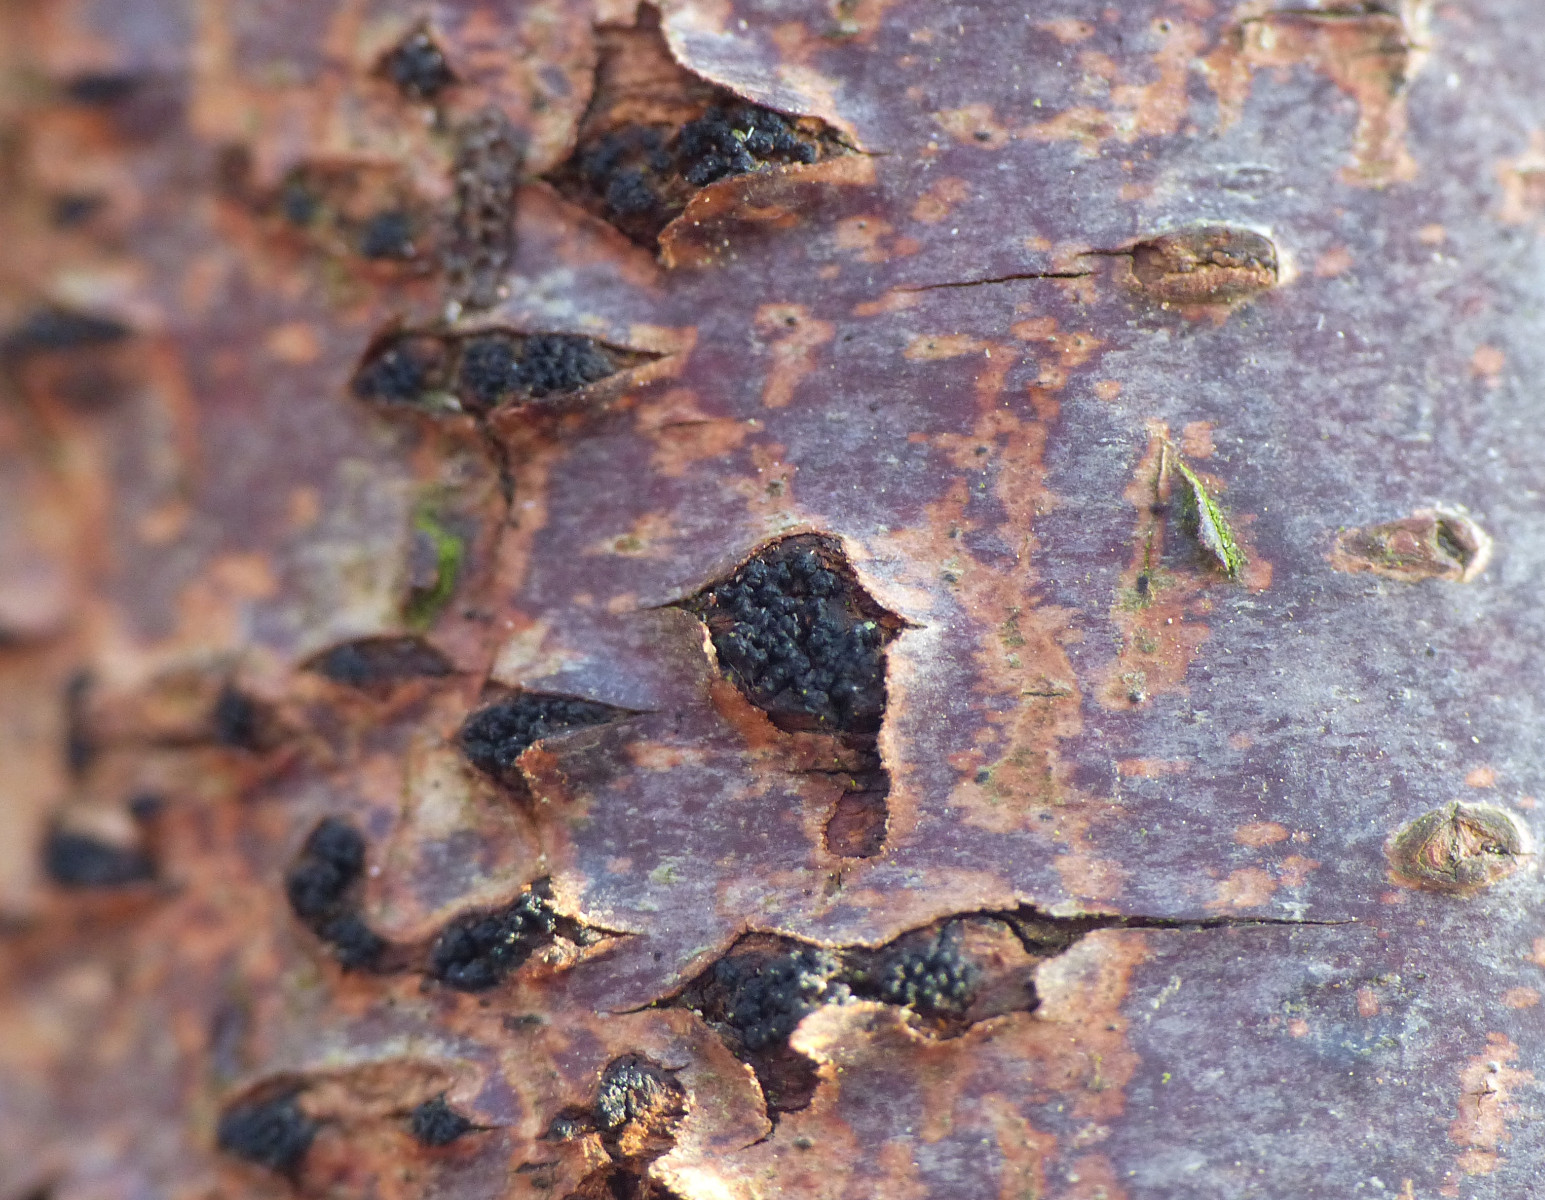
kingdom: Fungi
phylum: Ascomycota
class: Sordariomycetes
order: Xylariales
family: Diatrypaceae
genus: Eutypella
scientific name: Eutypella prunastri
